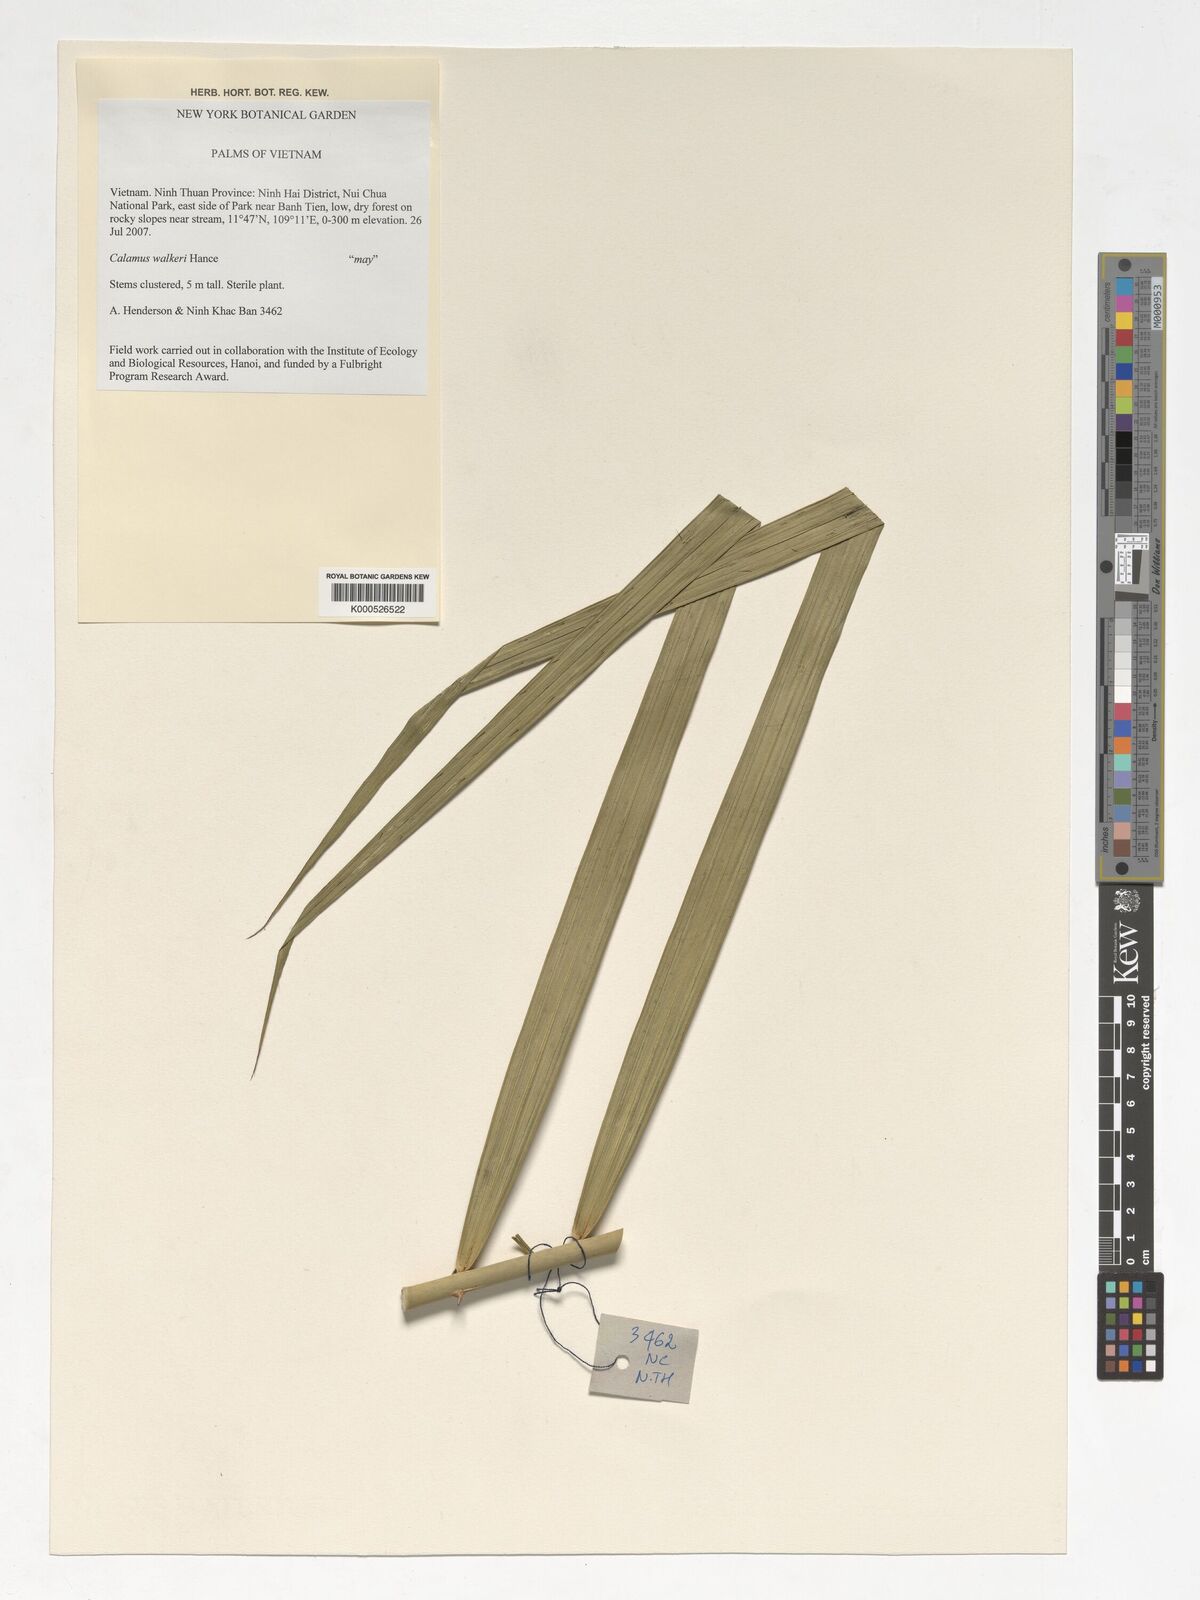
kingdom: Plantae
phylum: Tracheophyta
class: Liliopsida
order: Arecales
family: Arecaceae
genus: Calamus
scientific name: Calamus walkeri
